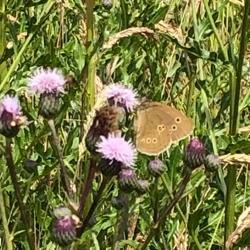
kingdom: Animalia
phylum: Arthropoda
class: Insecta
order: Lepidoptera
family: Nymphalidae
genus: Aphantopus
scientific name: Aphantopus hyperantus
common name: Engrandøje
